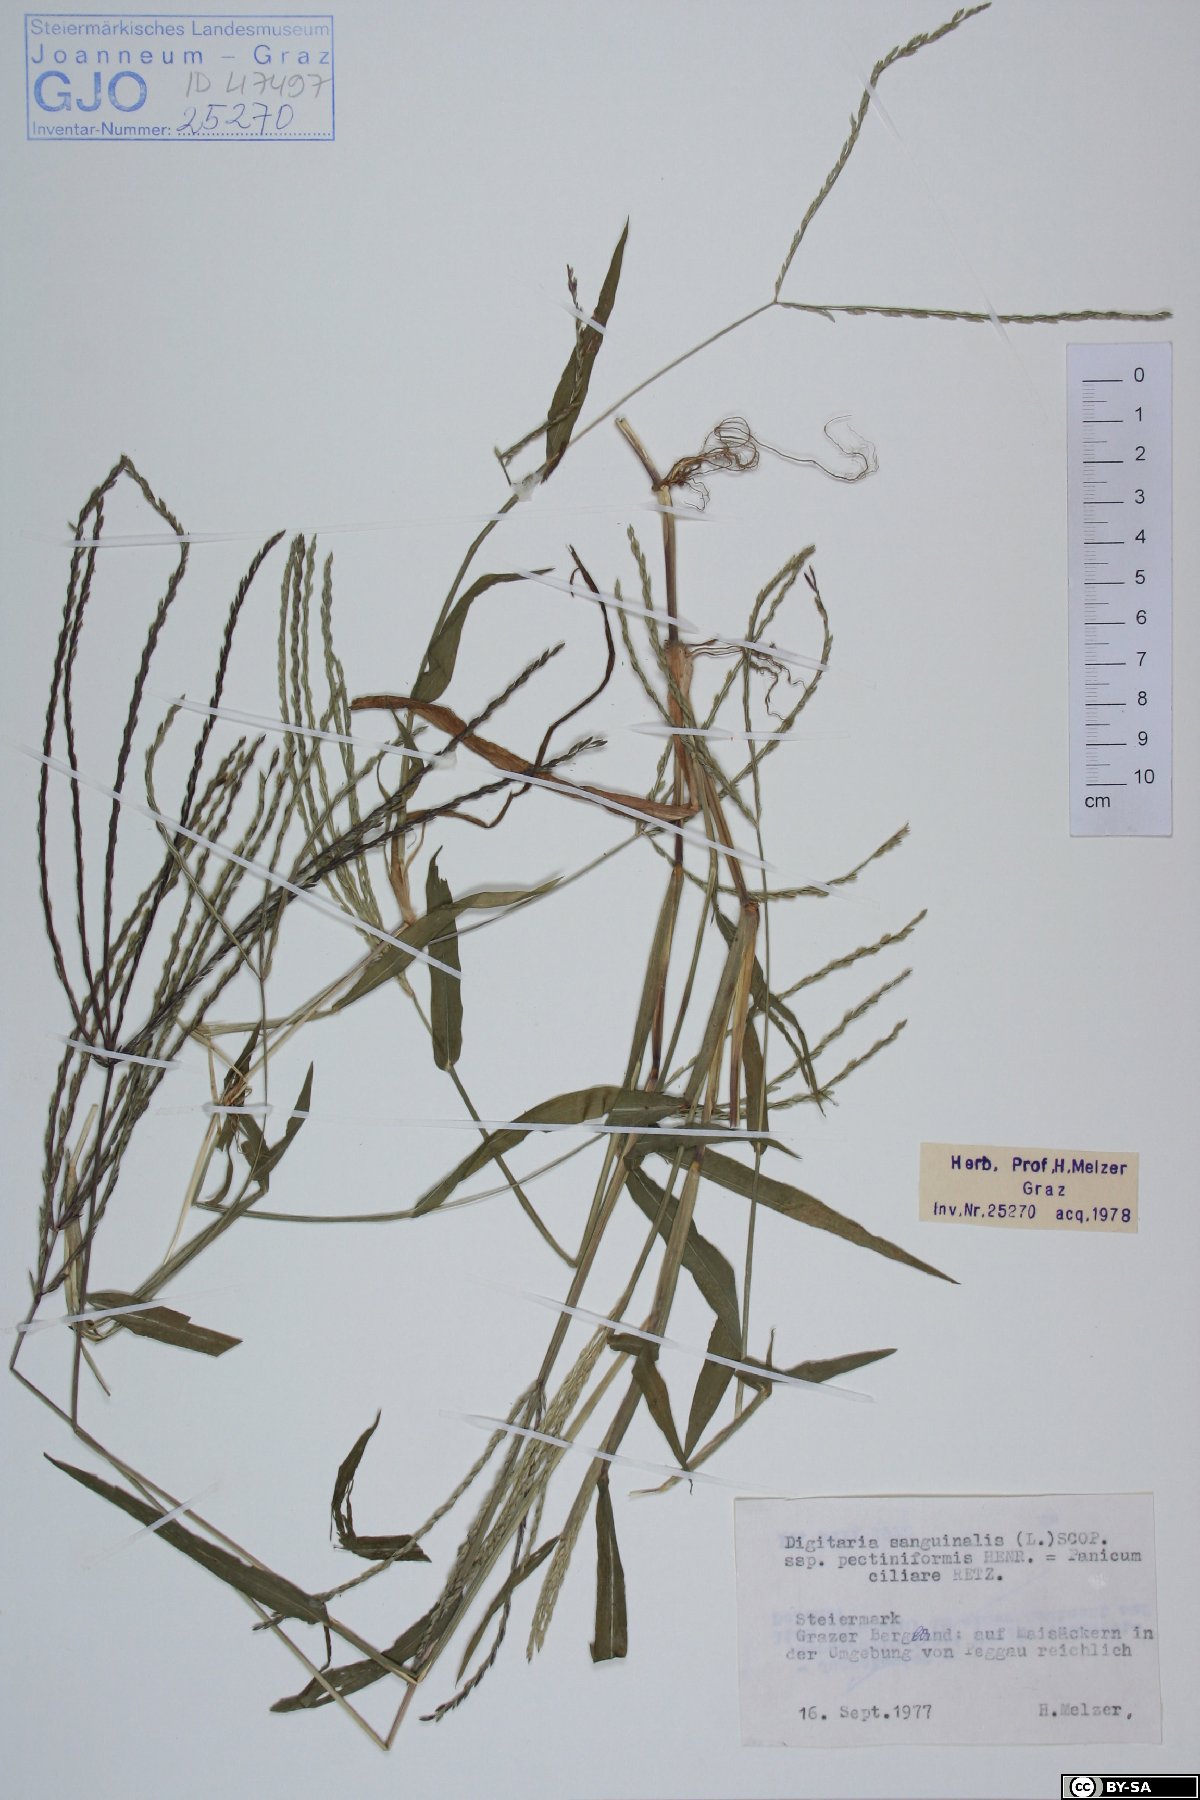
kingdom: Plantae
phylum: Tracheophyta
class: Liliopsida
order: Poales
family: Poaceae
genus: Digitaria
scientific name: Digitaria sanguinalis
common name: Hairy crabgrass
